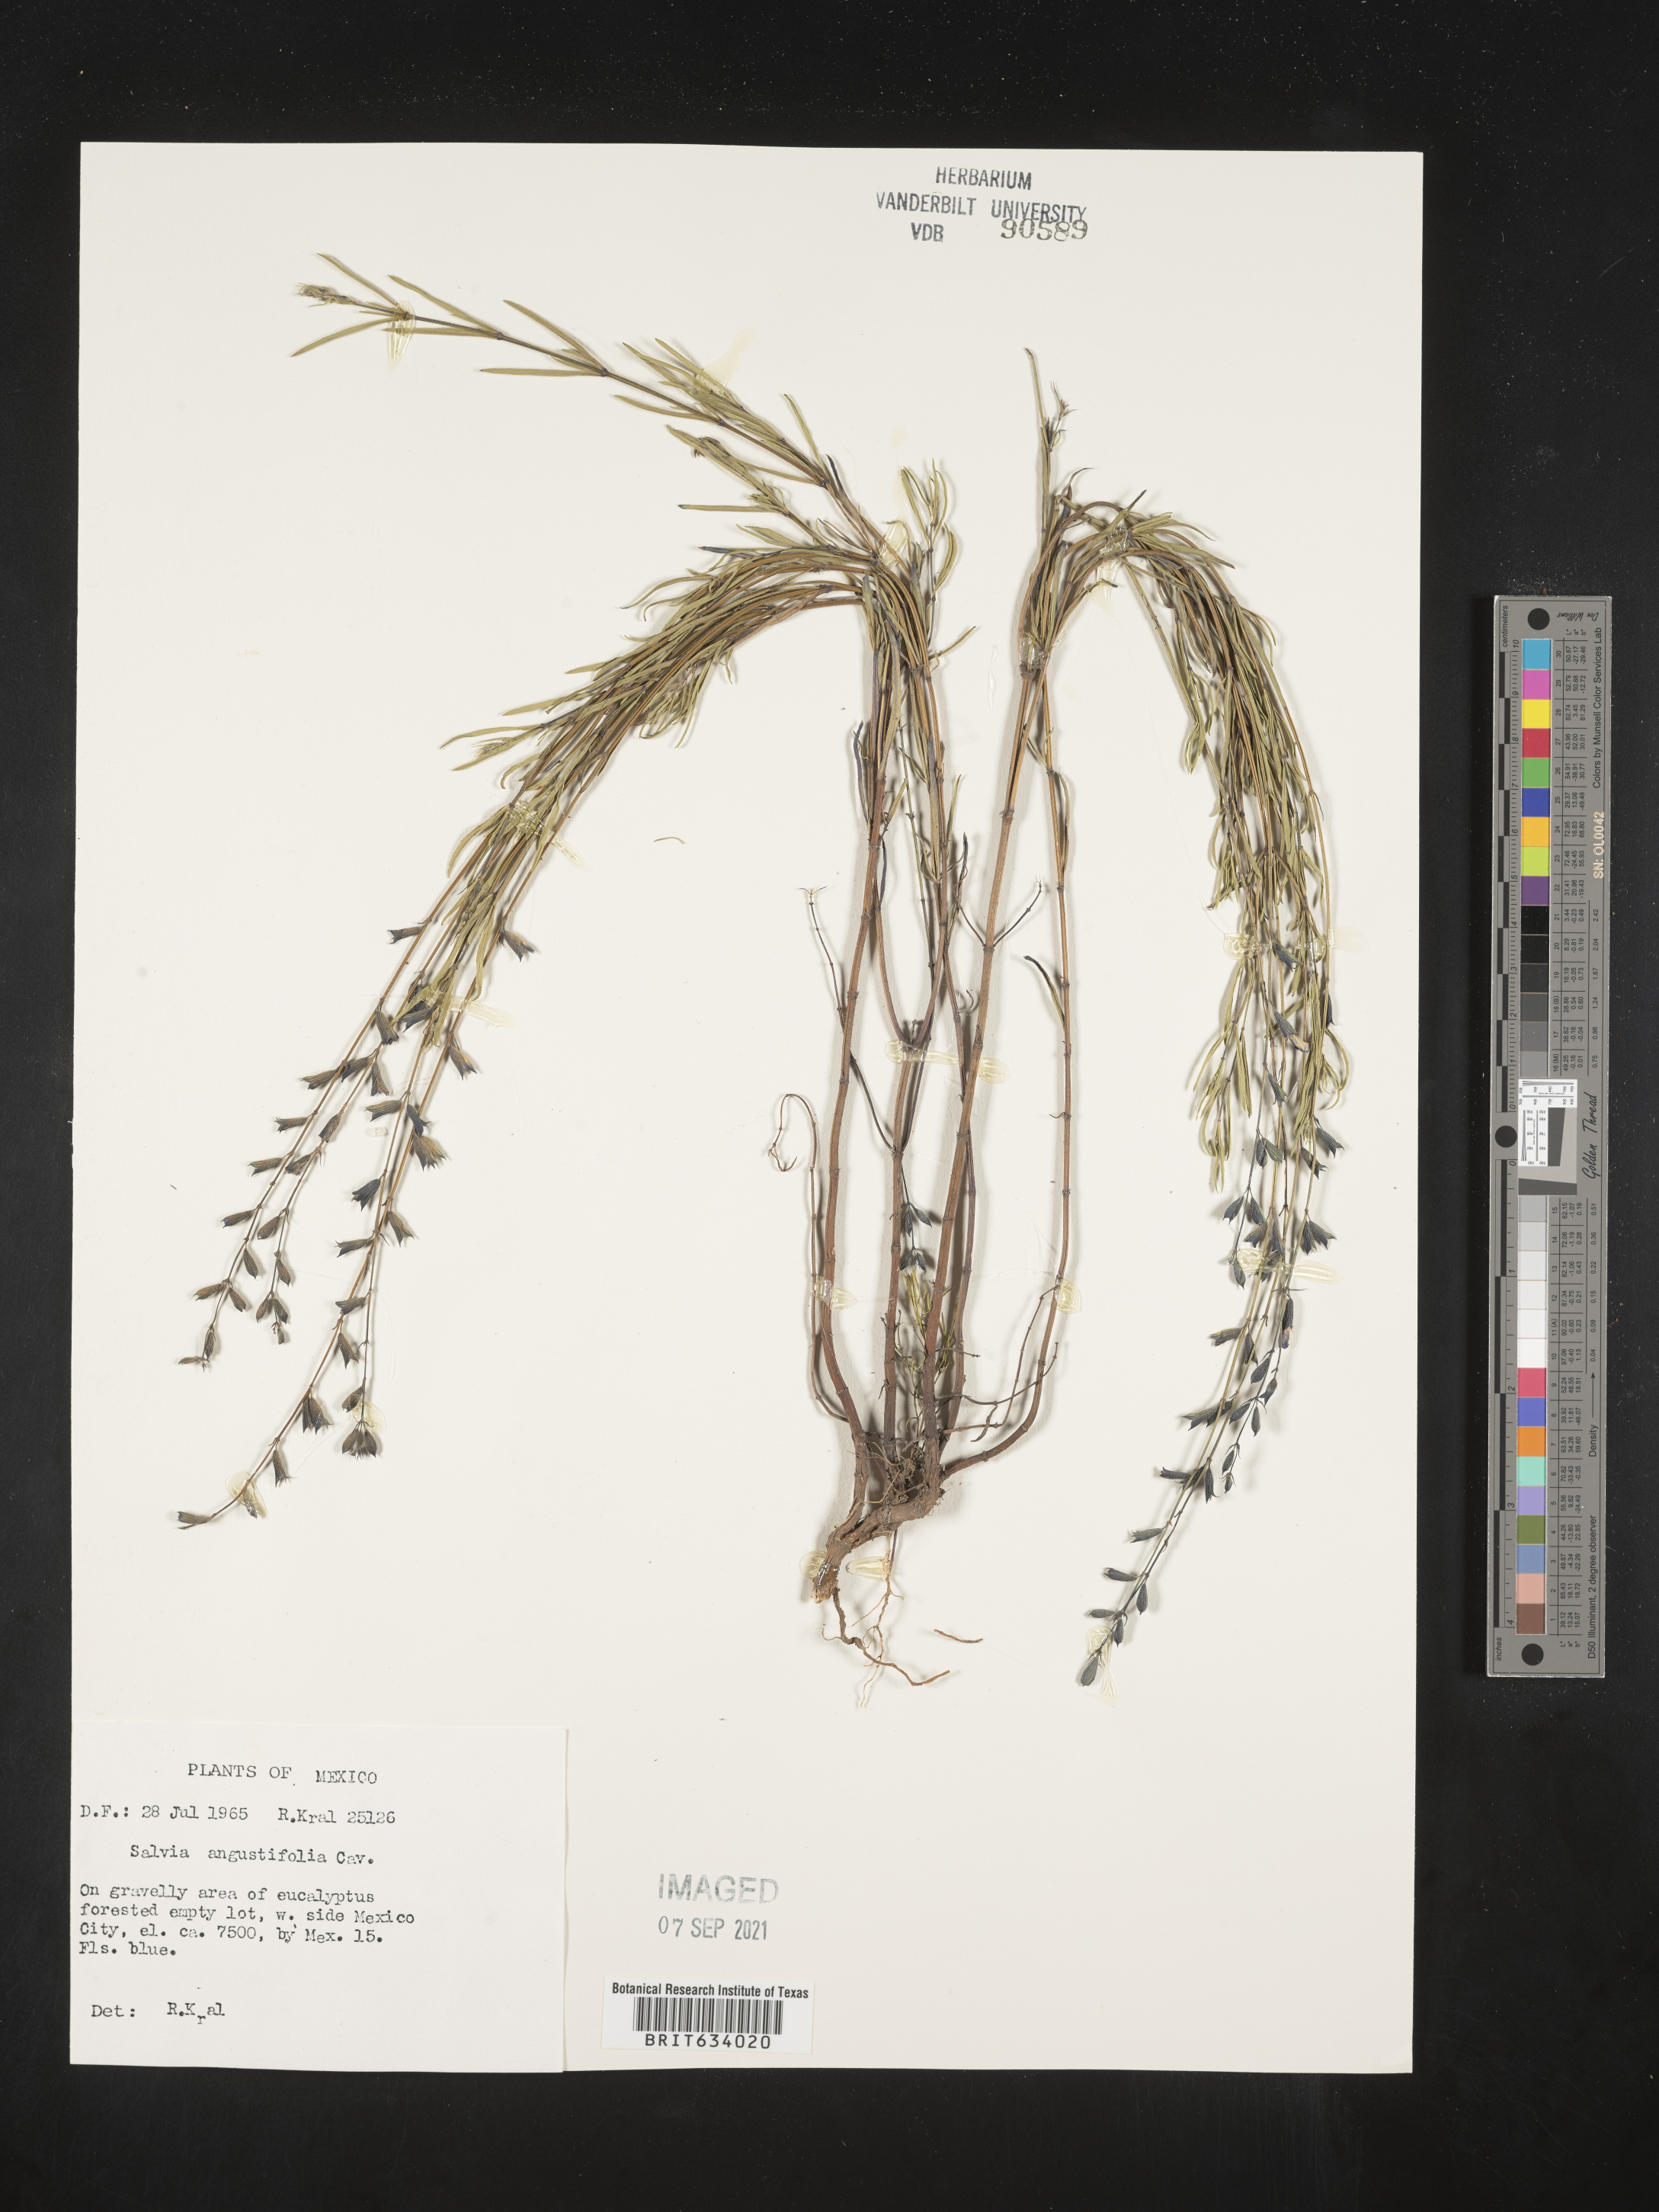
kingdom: Plantae
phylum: Tracheophyta
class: Magnoliopsida
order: Lamiales
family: Lamiaceae
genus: Salvia
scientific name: Salvia
